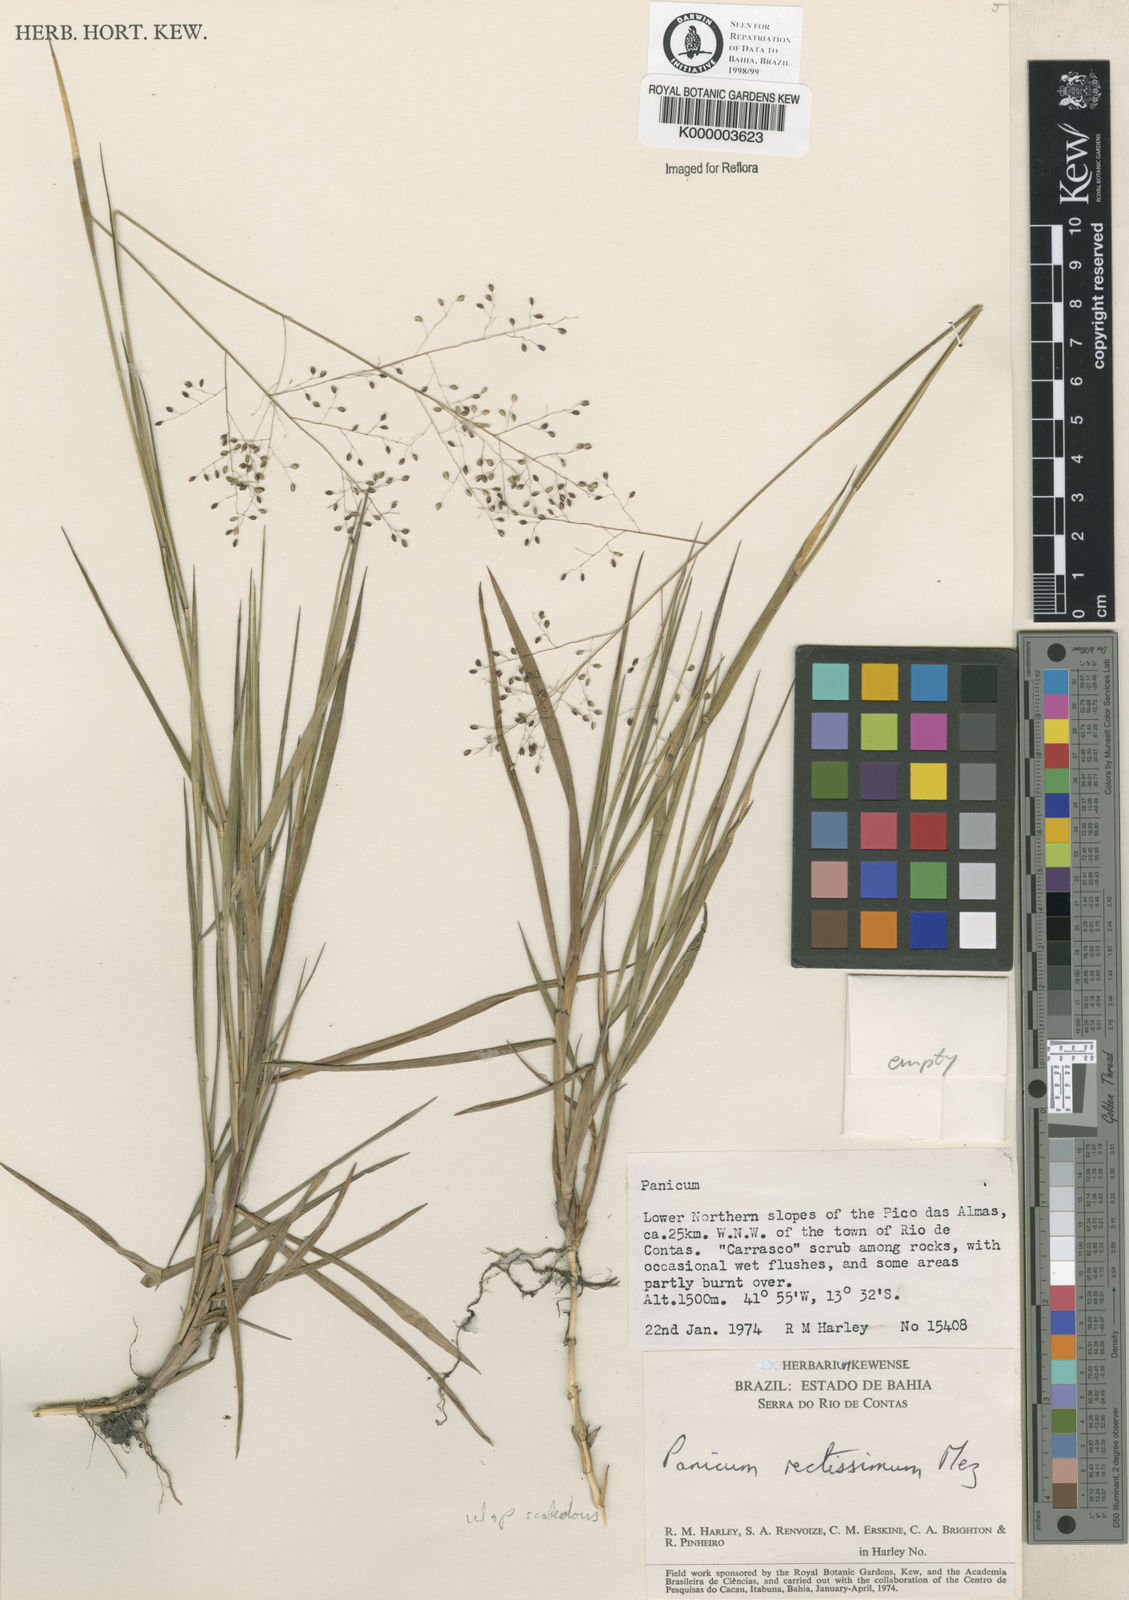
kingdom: Plantae
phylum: Tracheophyta
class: Liliopsida
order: Poales
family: Poaceae
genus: Trichanthecium
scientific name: Trichanthecium wettsteinii
